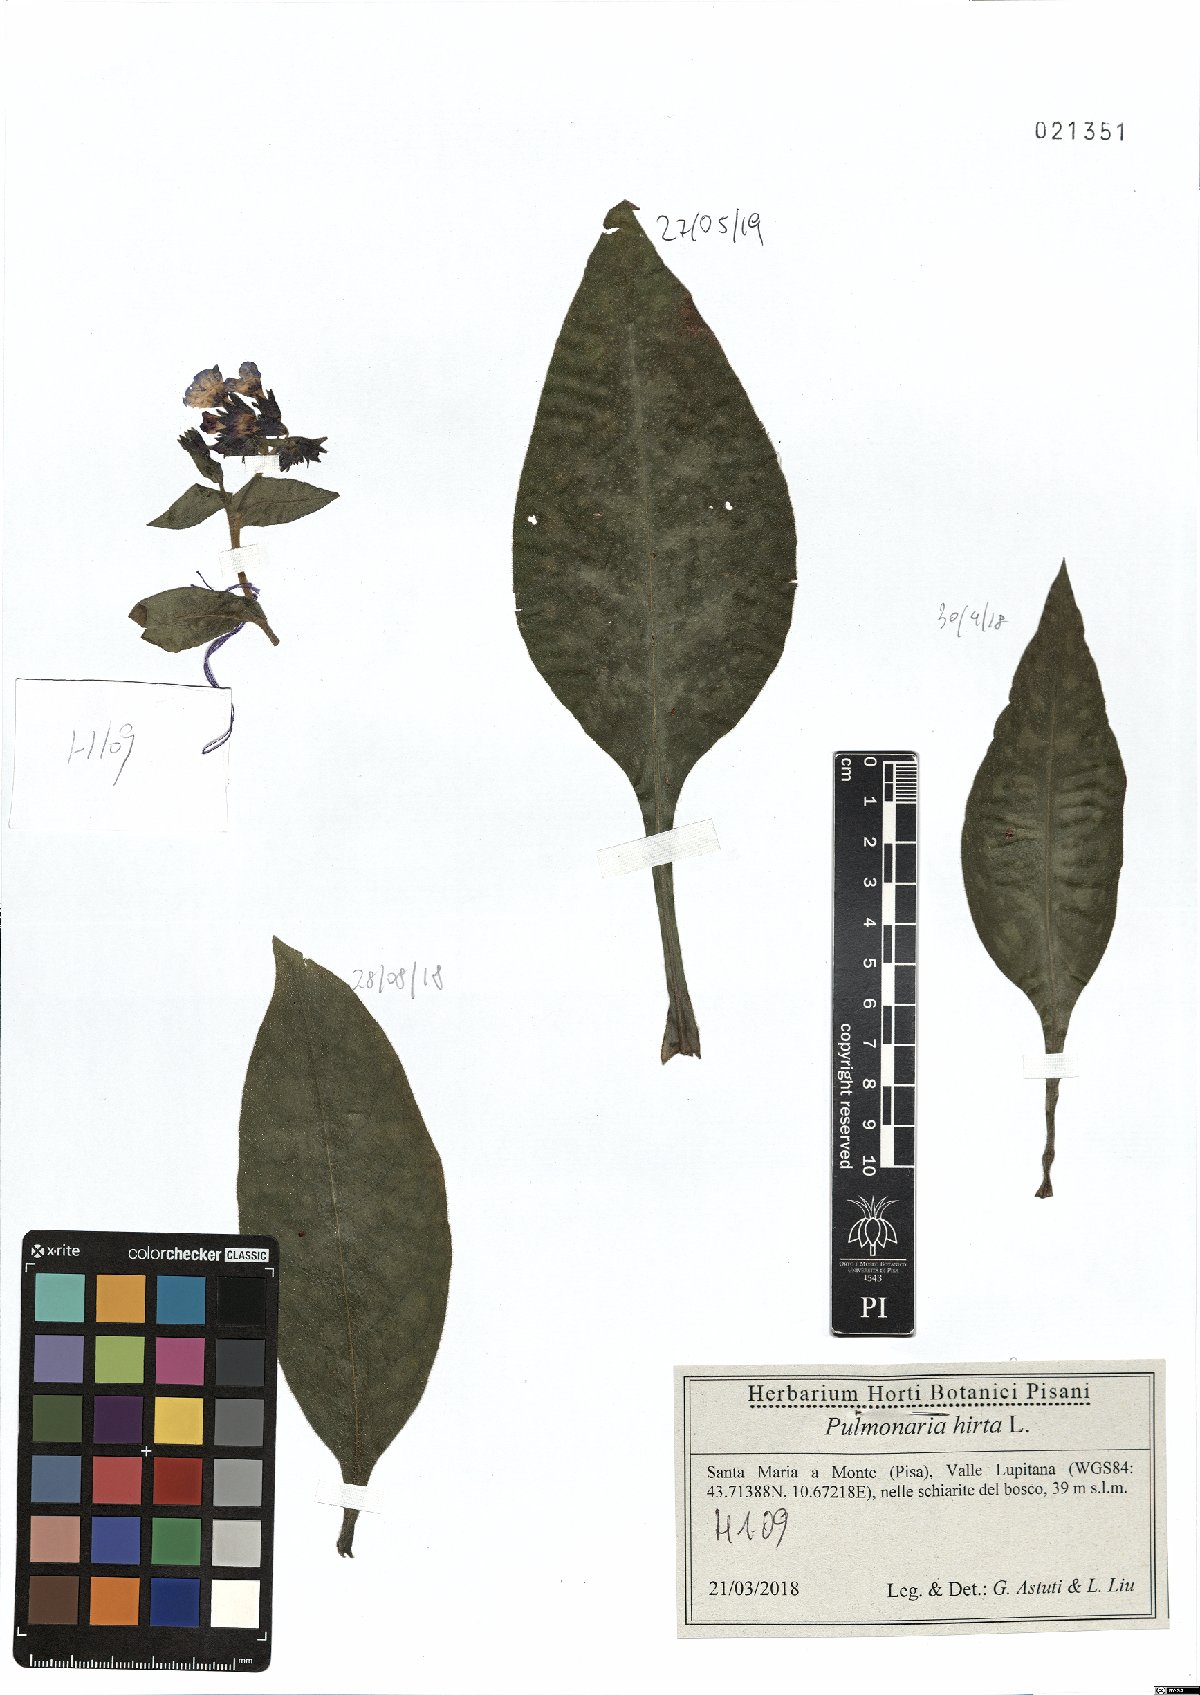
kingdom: Plantae
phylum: Tracheophyta
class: Magnoliopsida
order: Boraginales
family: Boraginaceae
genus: Pulmonaria
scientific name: Pulmonaria hirta
